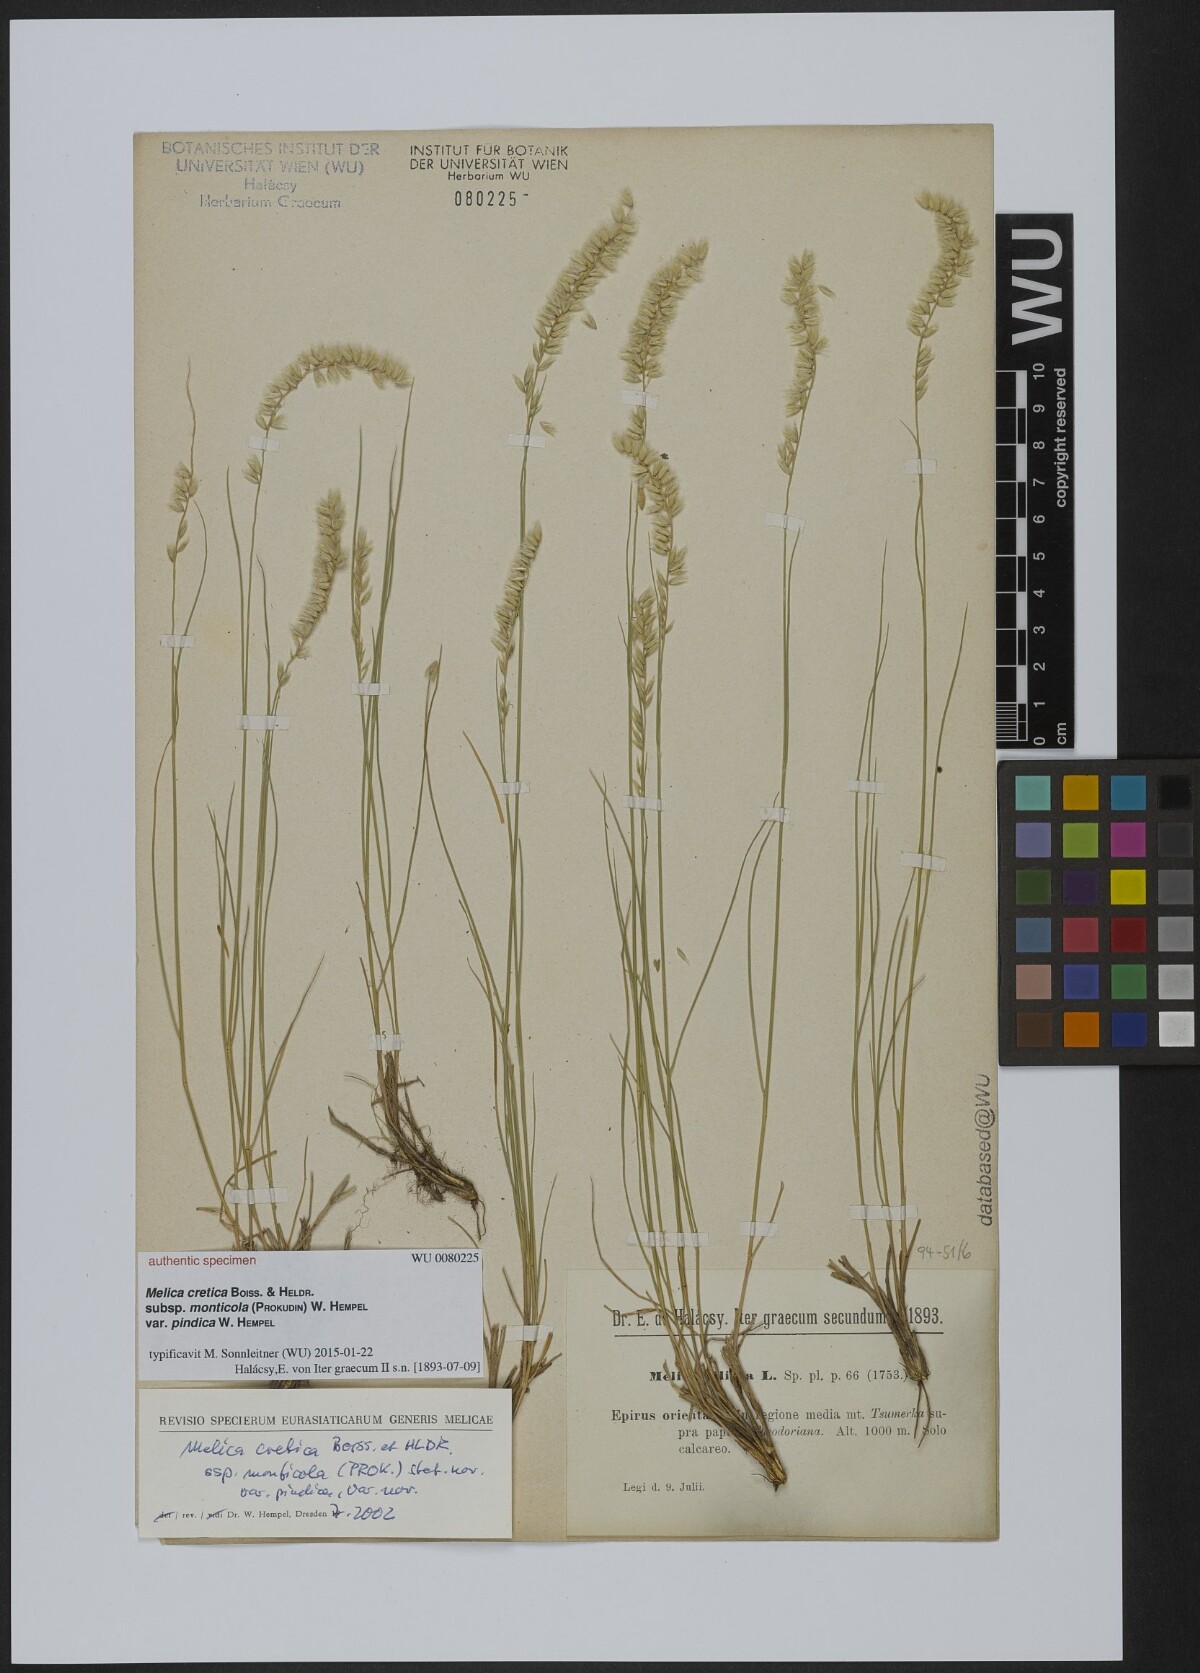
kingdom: Plantae
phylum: Tracheophyta
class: Liliopsida
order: Poales
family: Poaceae
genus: Melica
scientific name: Melica ciliata
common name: Hairy melicgrass
